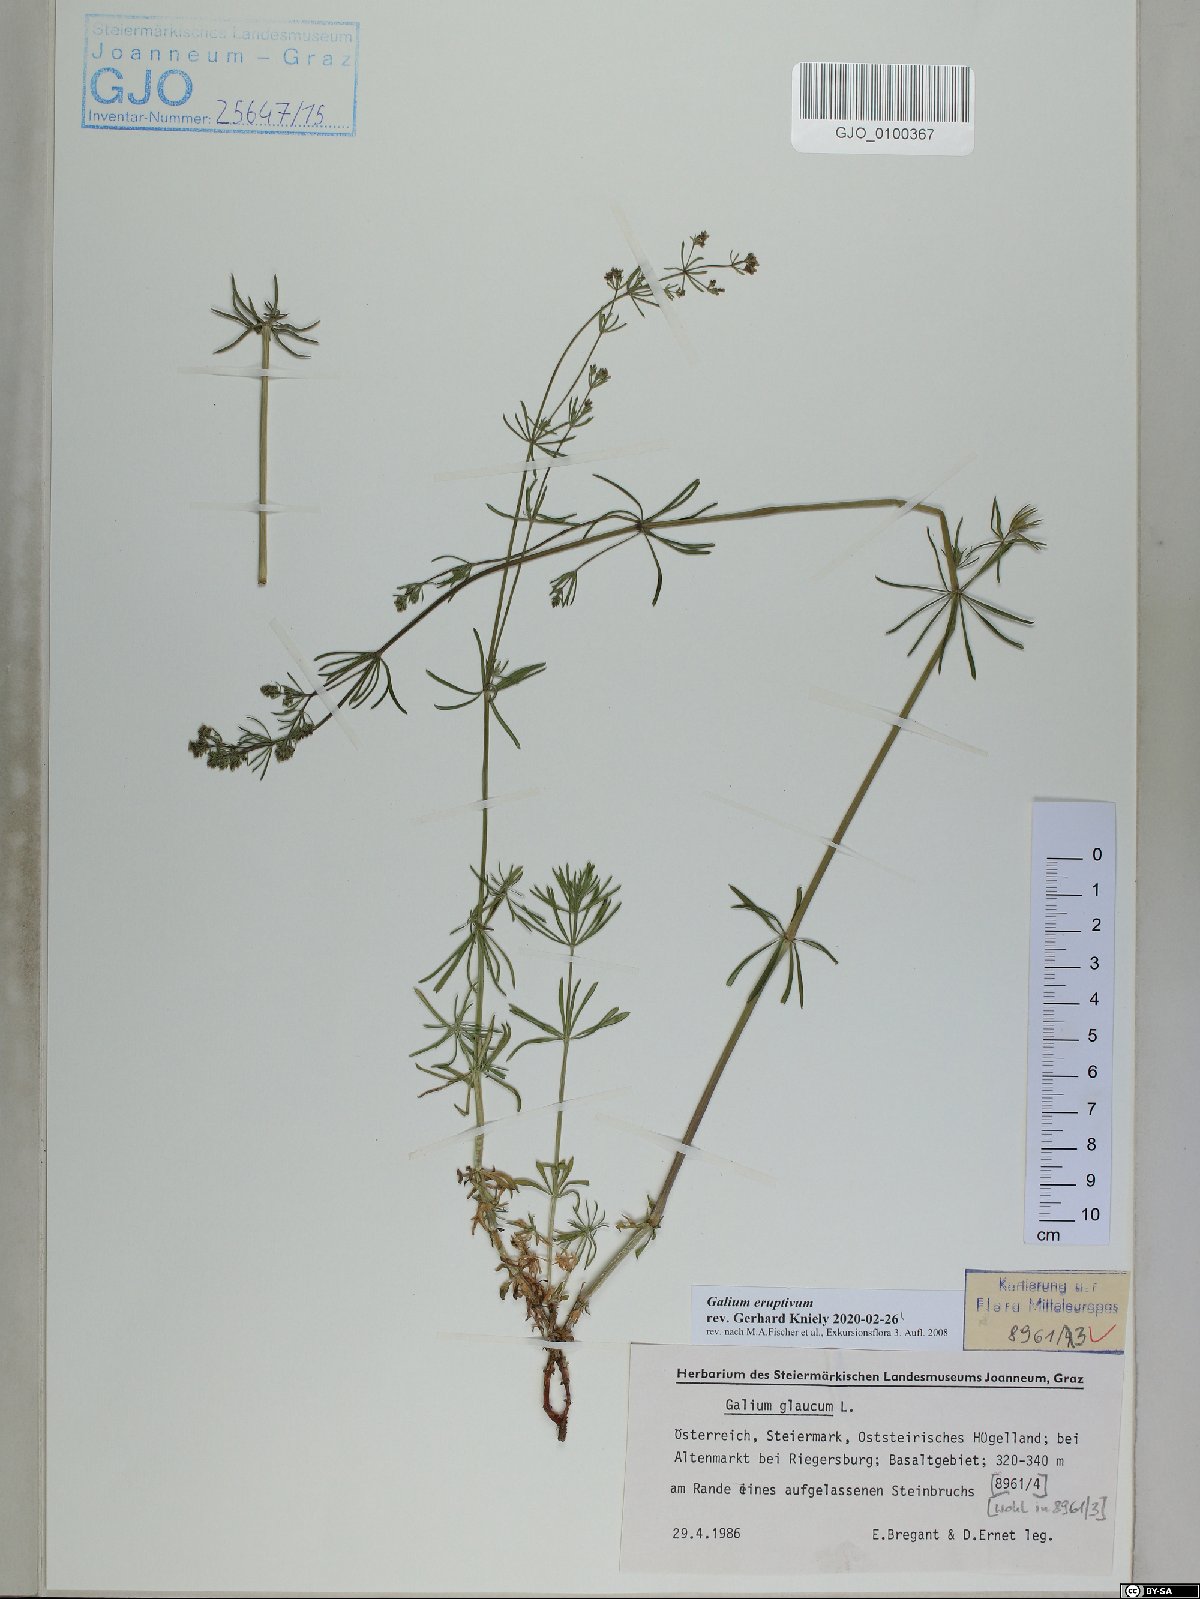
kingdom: Plantae
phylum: Tracheophyta
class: Magnoliopsida
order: Gentianales
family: Rubiaceae
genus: Galium
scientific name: Galium eruptivum
